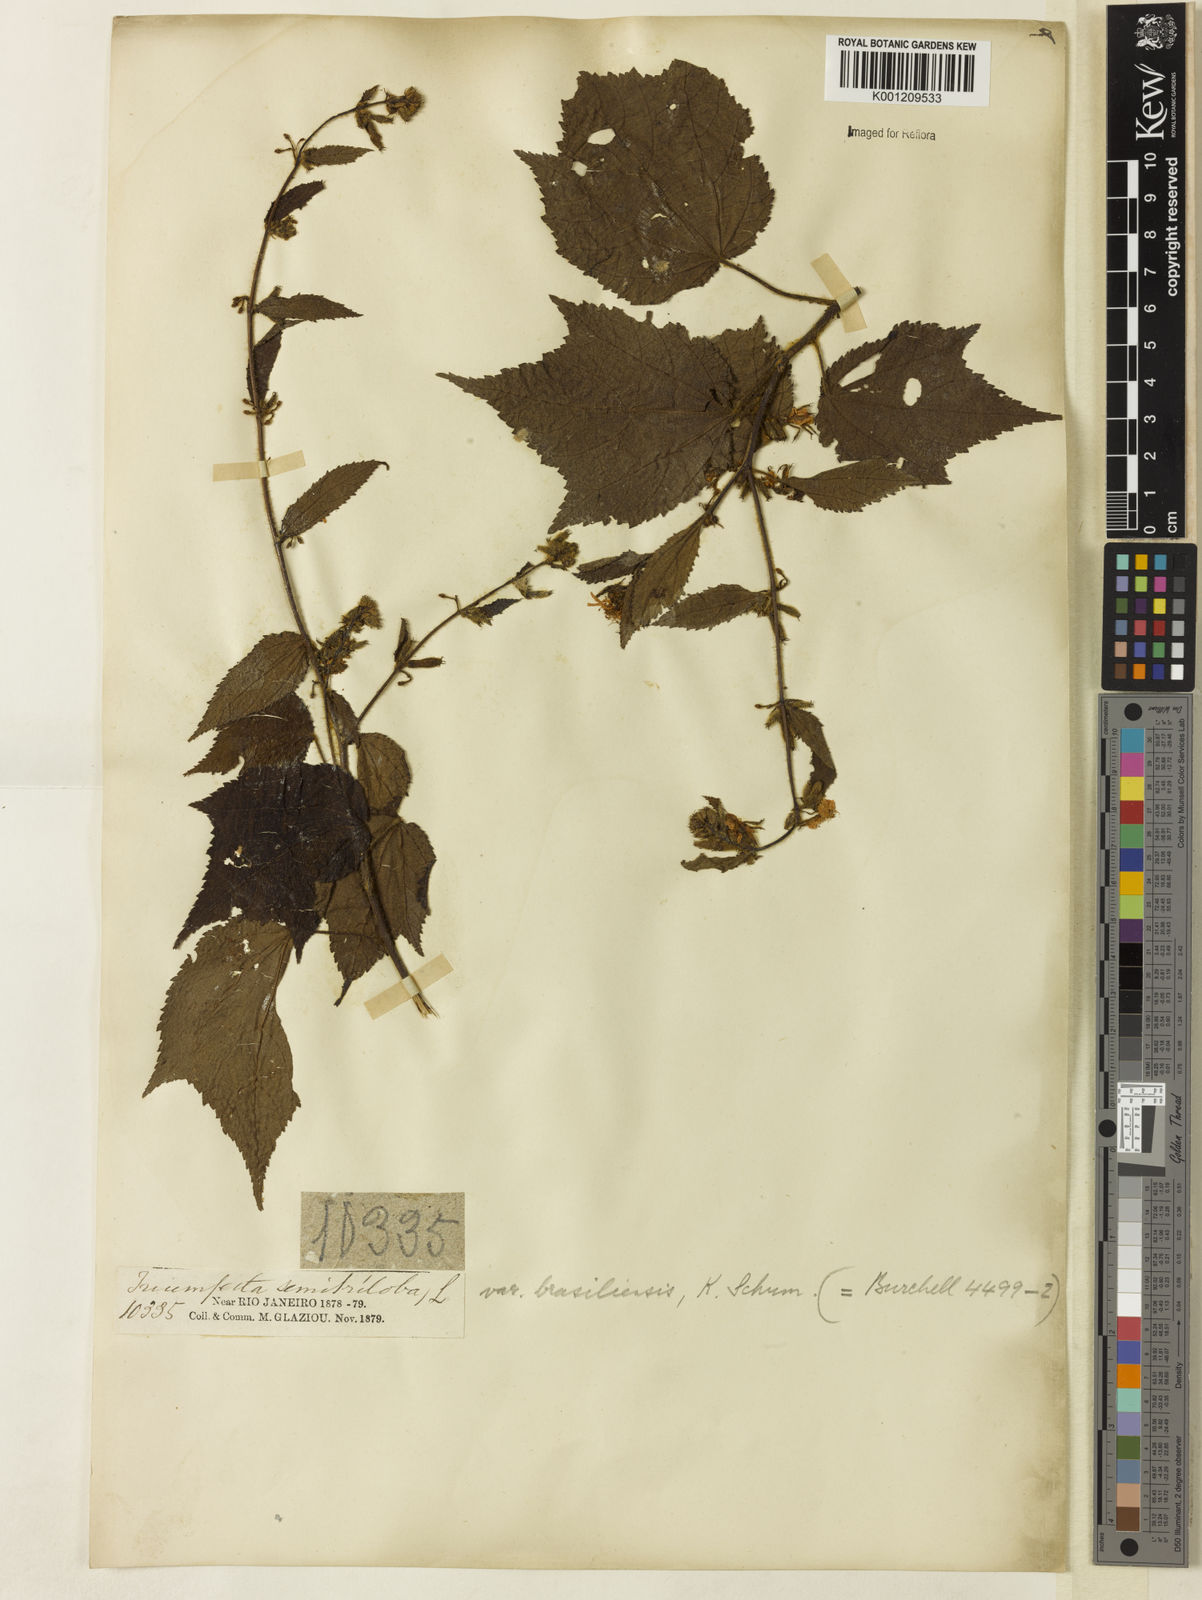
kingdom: Plantae
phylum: Tracheophyta
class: Magnoliopsida
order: Malvales
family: Malvaceae
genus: Triumfetta
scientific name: Triumfetta semitriloba
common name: Sacramento burbark
